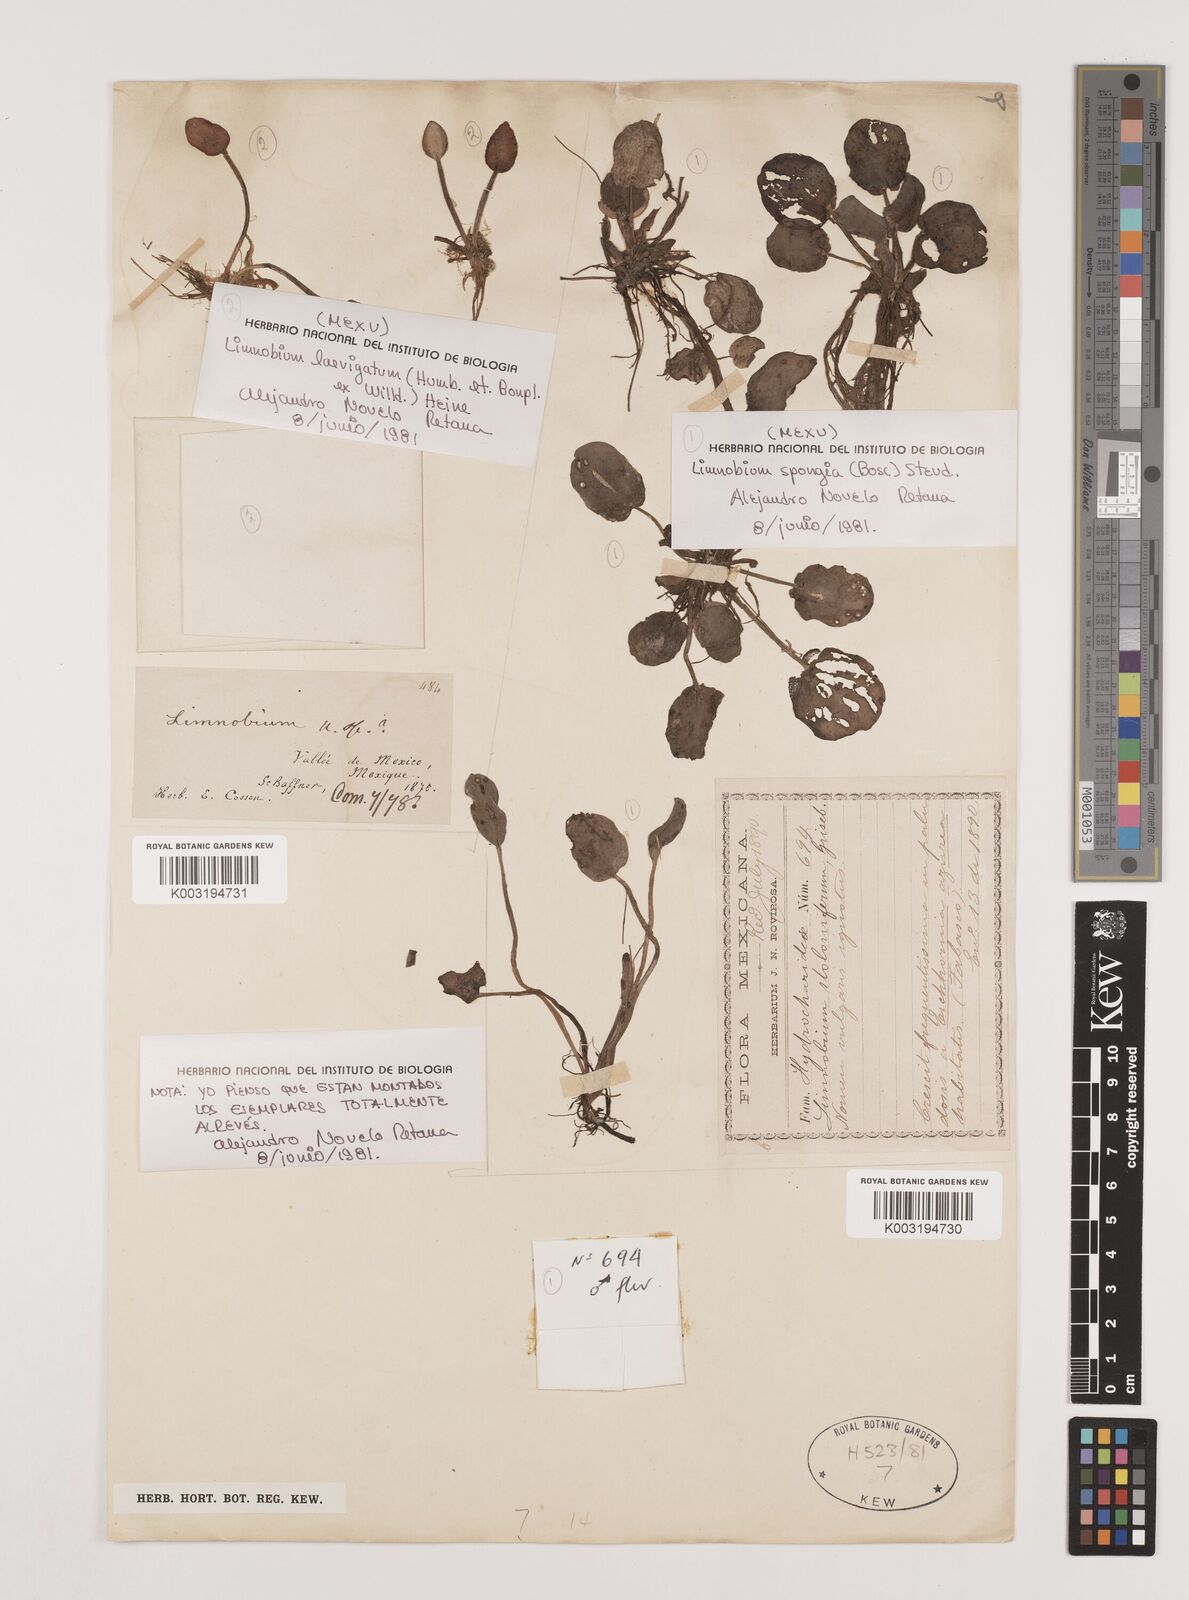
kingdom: Plantae
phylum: Tracheophyta
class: Liliopsida
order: Alismatales
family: Hydrocharitaceae
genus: Hydrocharis
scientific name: Hydrocharis laevigata
